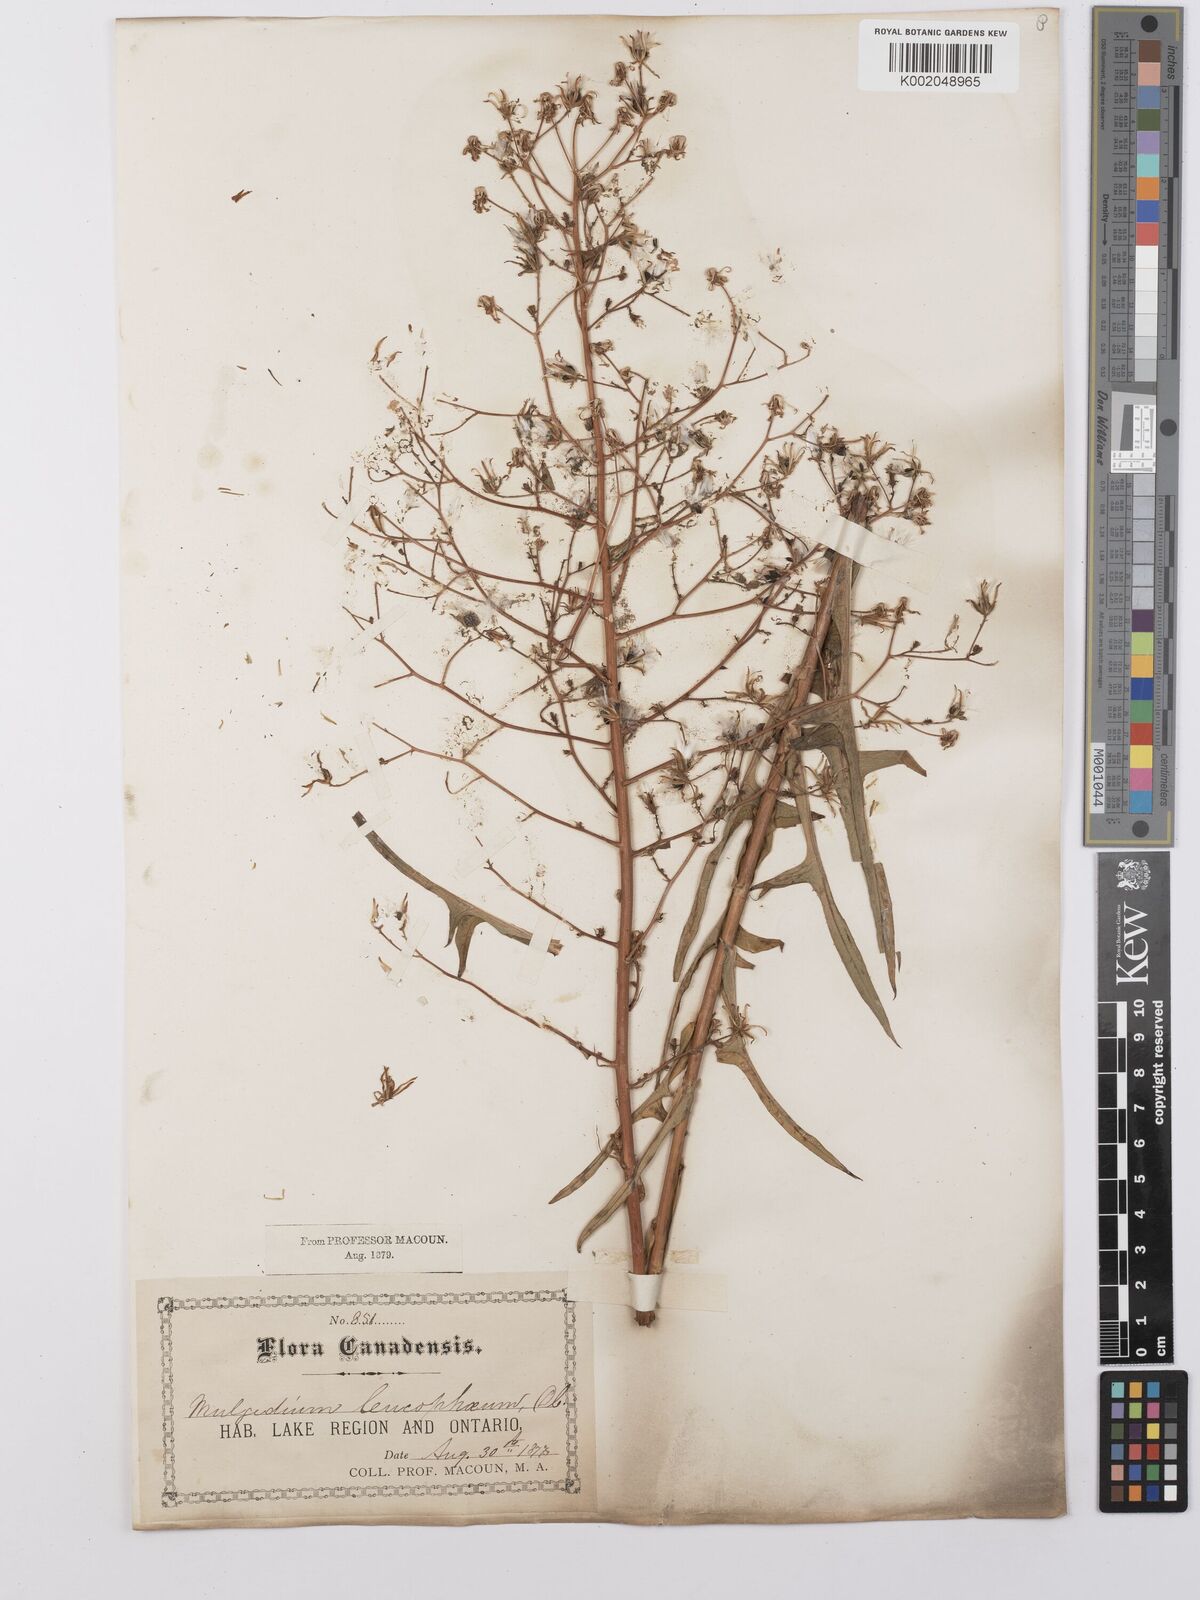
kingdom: Plantae
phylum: Tracheophyta
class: Magnoliopsida
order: Asterales
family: Asteraceae
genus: Lactuca
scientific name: Lactuca
